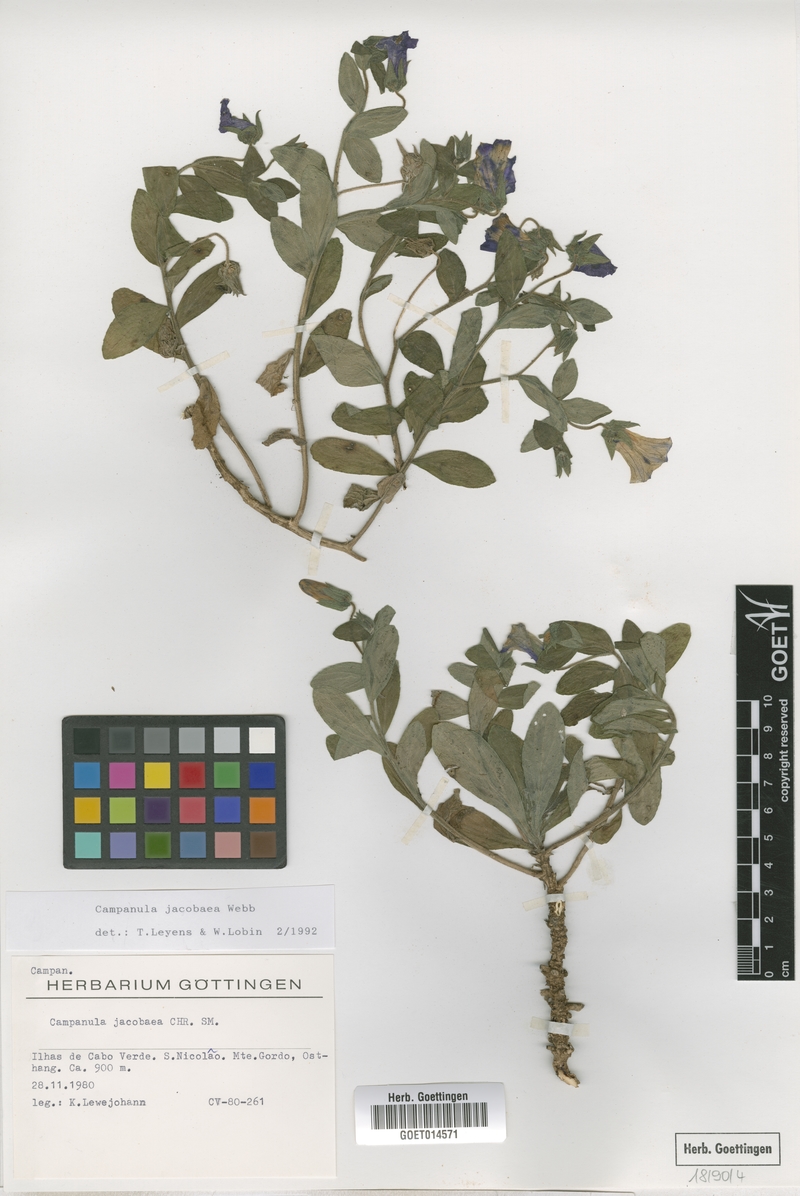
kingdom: Plantae
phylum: Tracheophyta
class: Magnoliopsida
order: Asterales
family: Campanulaceae
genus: Campanula
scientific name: Campanula jacobaea
